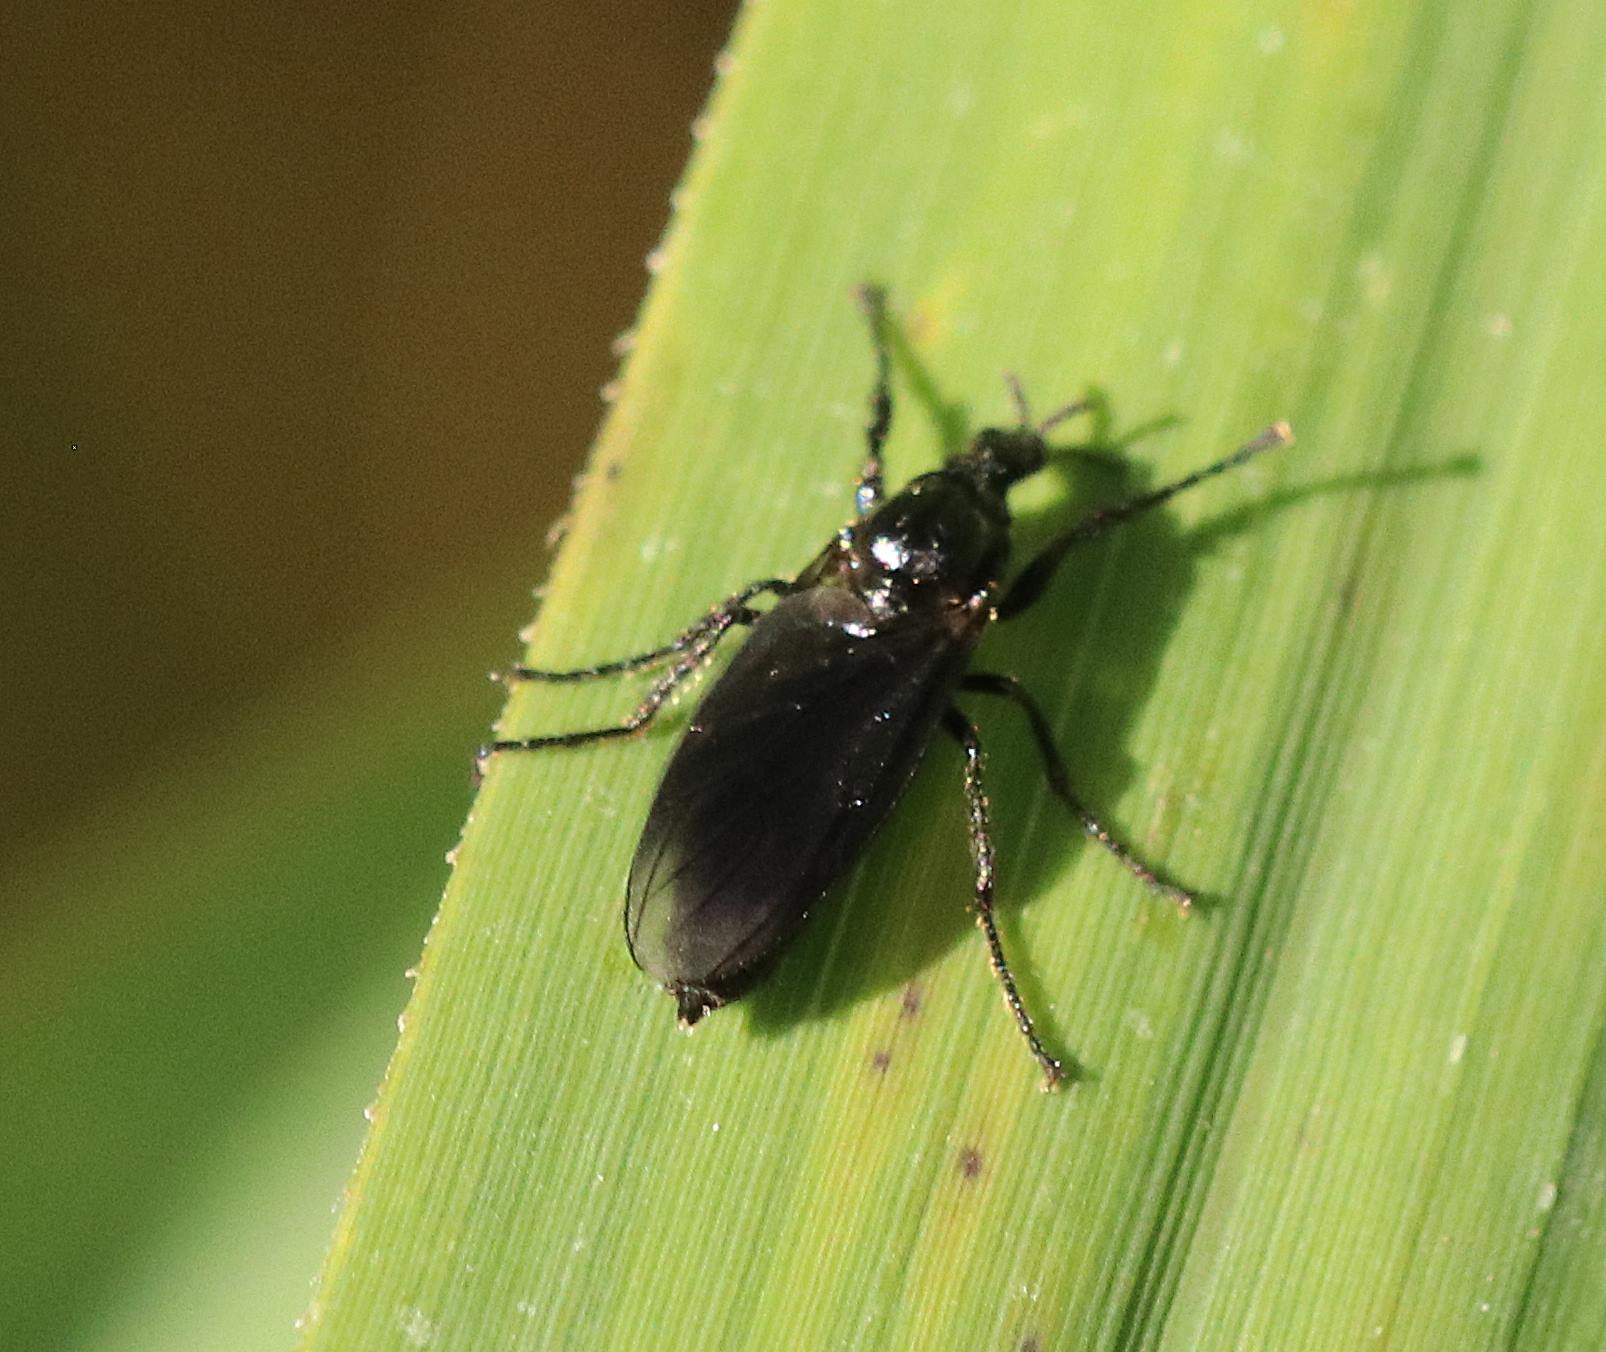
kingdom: Animalia
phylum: Arthropoda
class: Insecta
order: Diptera
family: Bibionidae
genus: Dilophus
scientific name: Dilophus febrilis
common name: Græshårmyg
